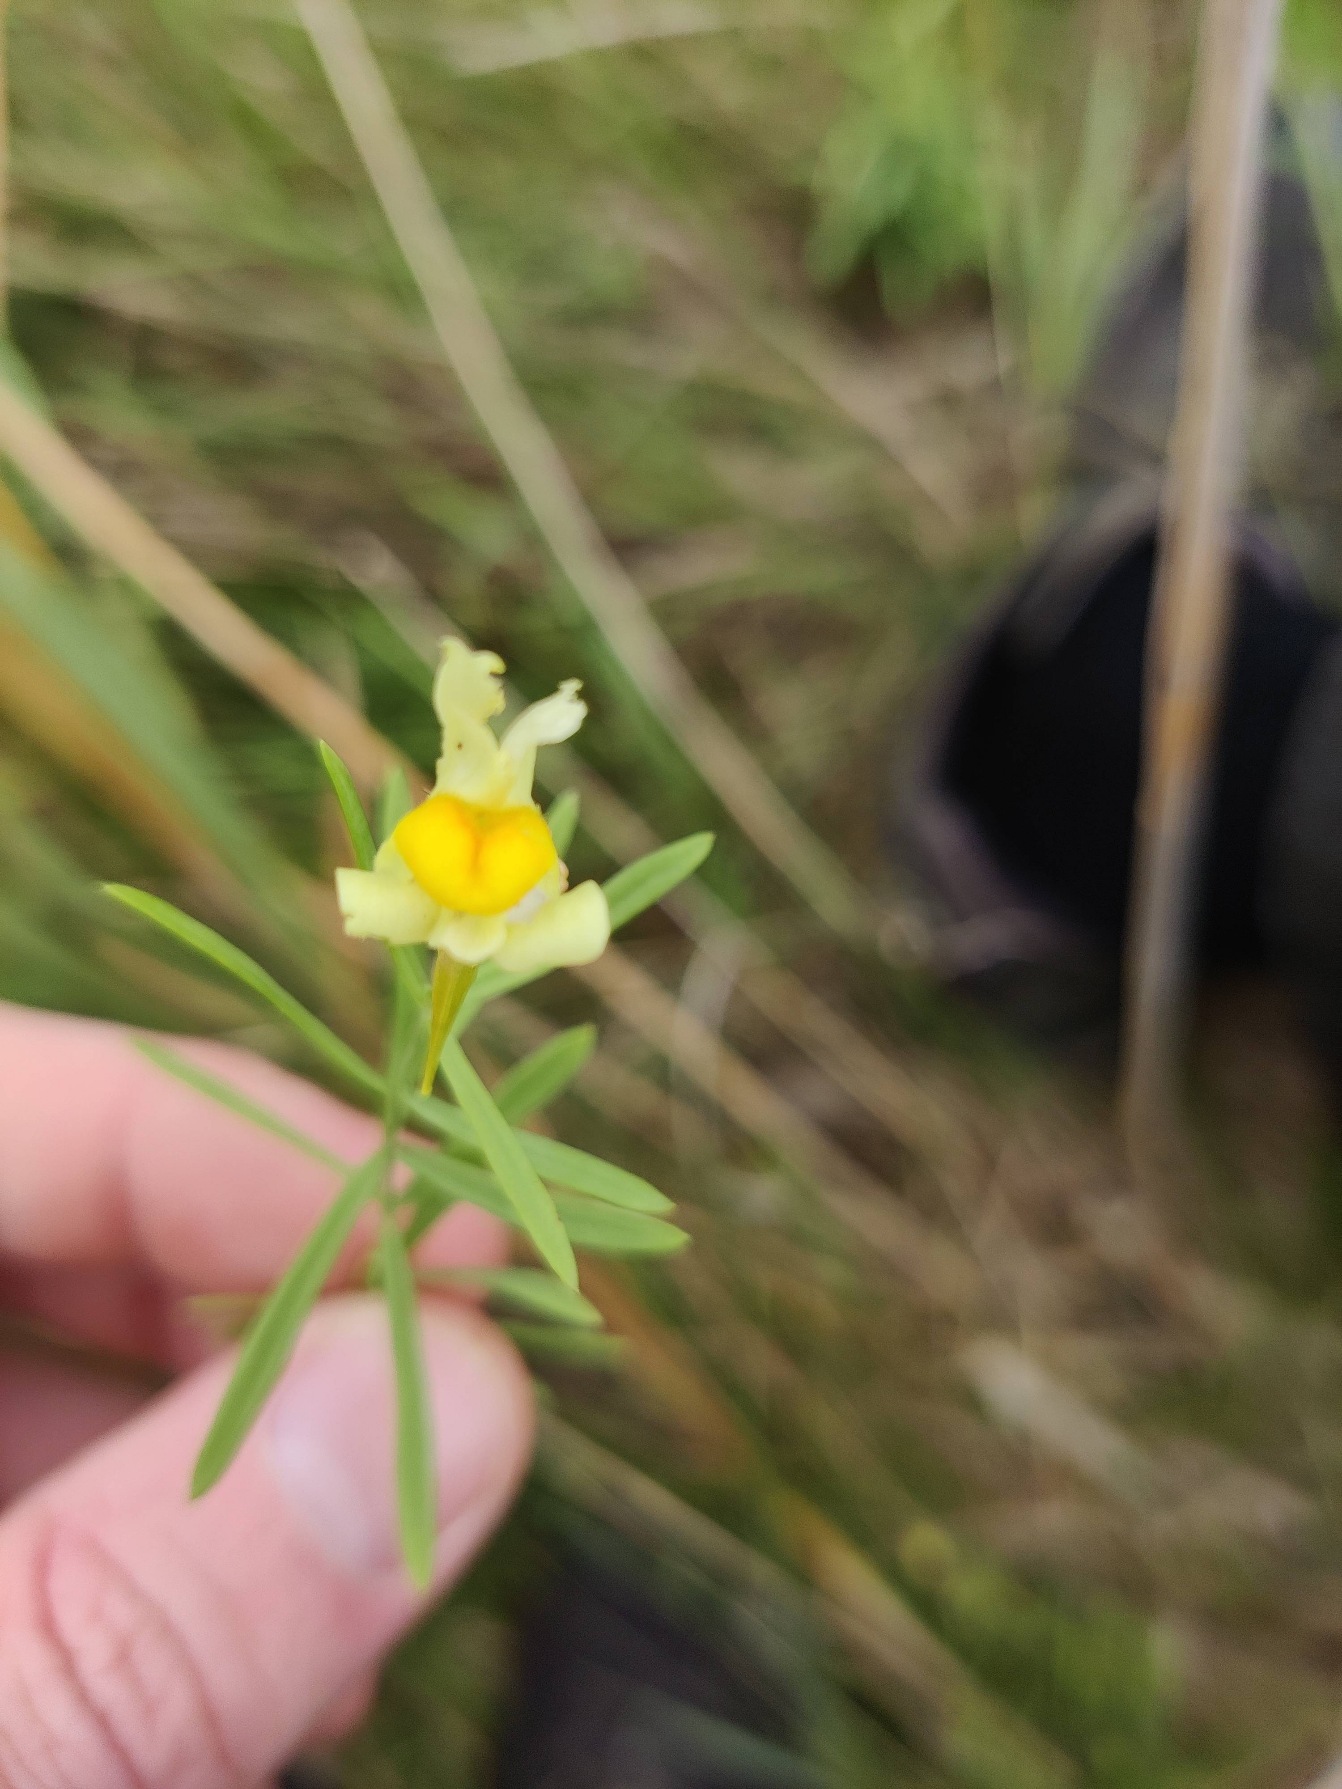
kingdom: Plantae
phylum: Tracheophyta
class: Magnoliopsida
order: Lamiales
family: Plantaginaceae
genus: Linaria
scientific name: Linaria vulgaris
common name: Almindelig torskemund
